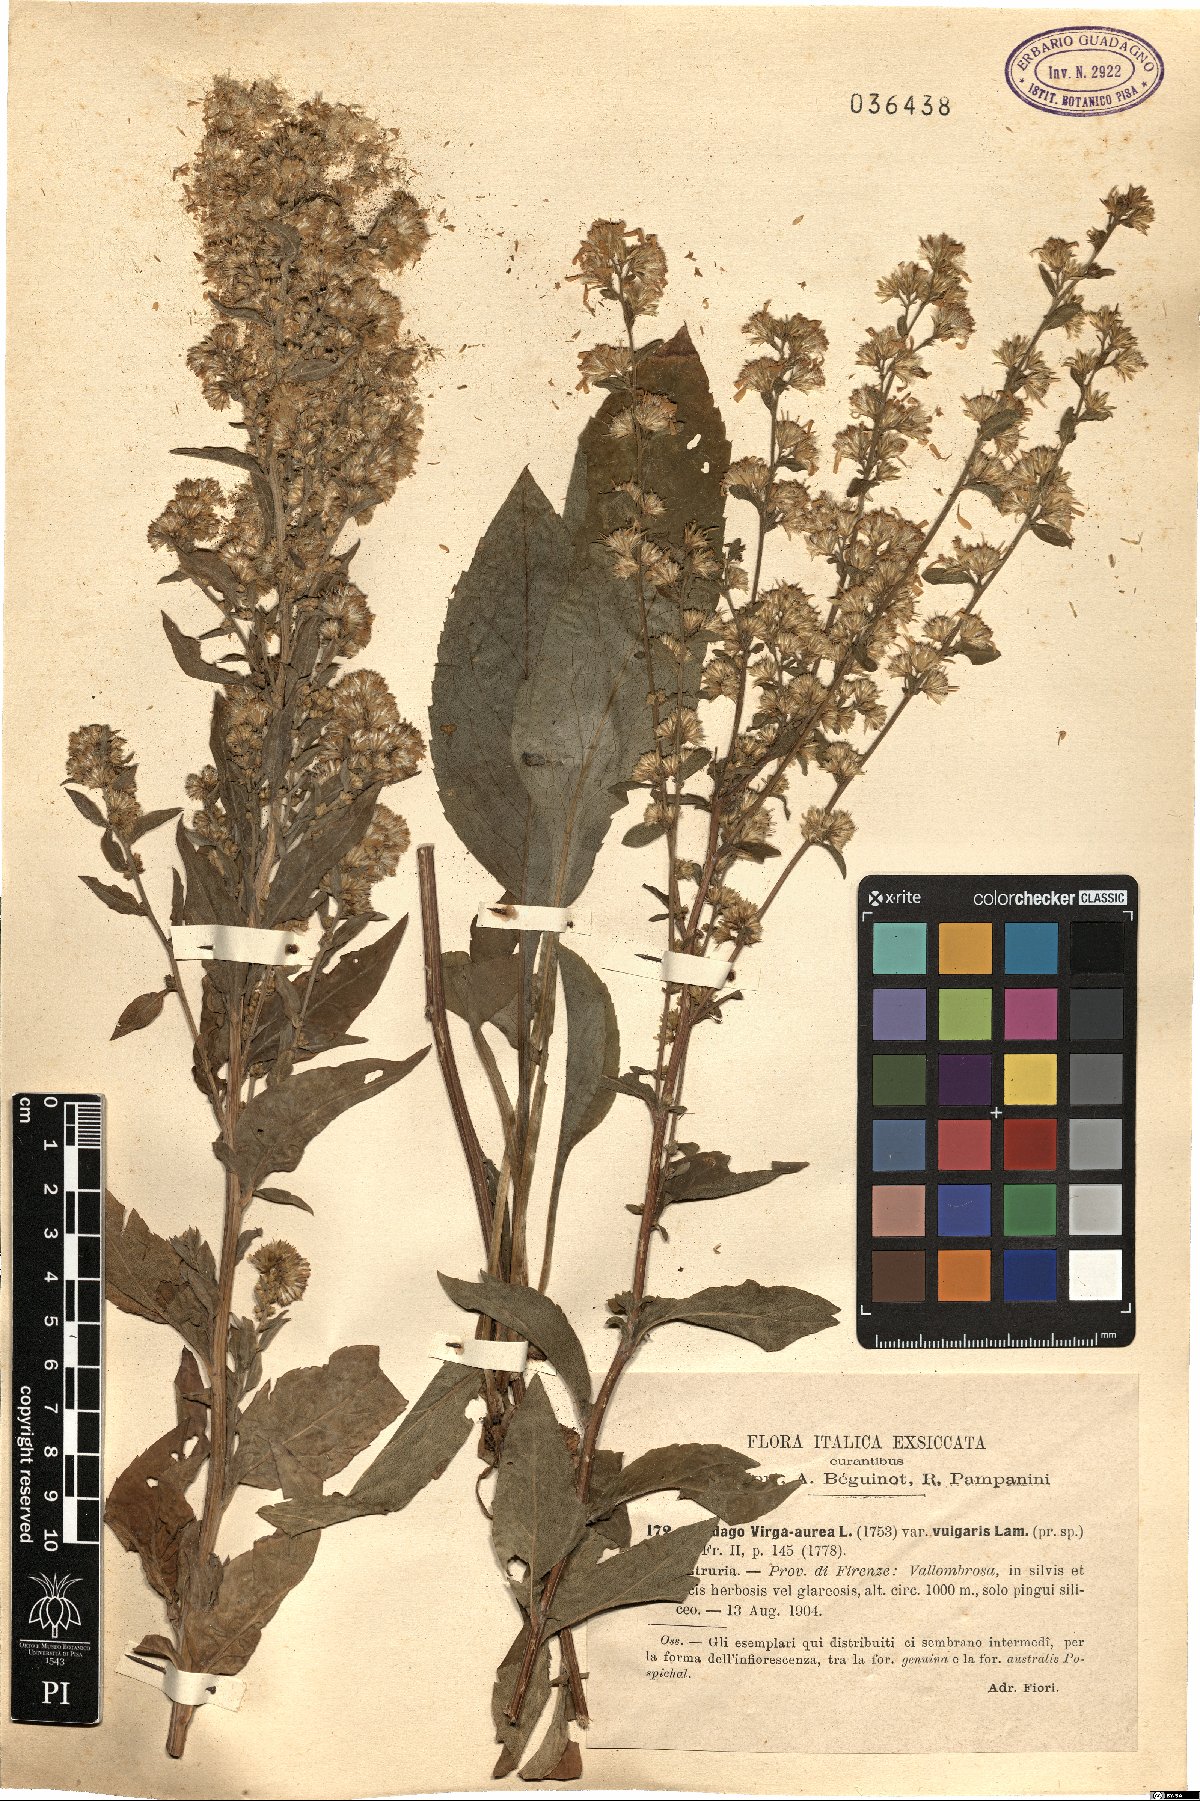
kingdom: Plantae
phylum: Tracheophyta
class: Magnoliopsida
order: Asterales
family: Asteraceae
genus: Solidago
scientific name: Solidago virgaurea
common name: Goldenrod
